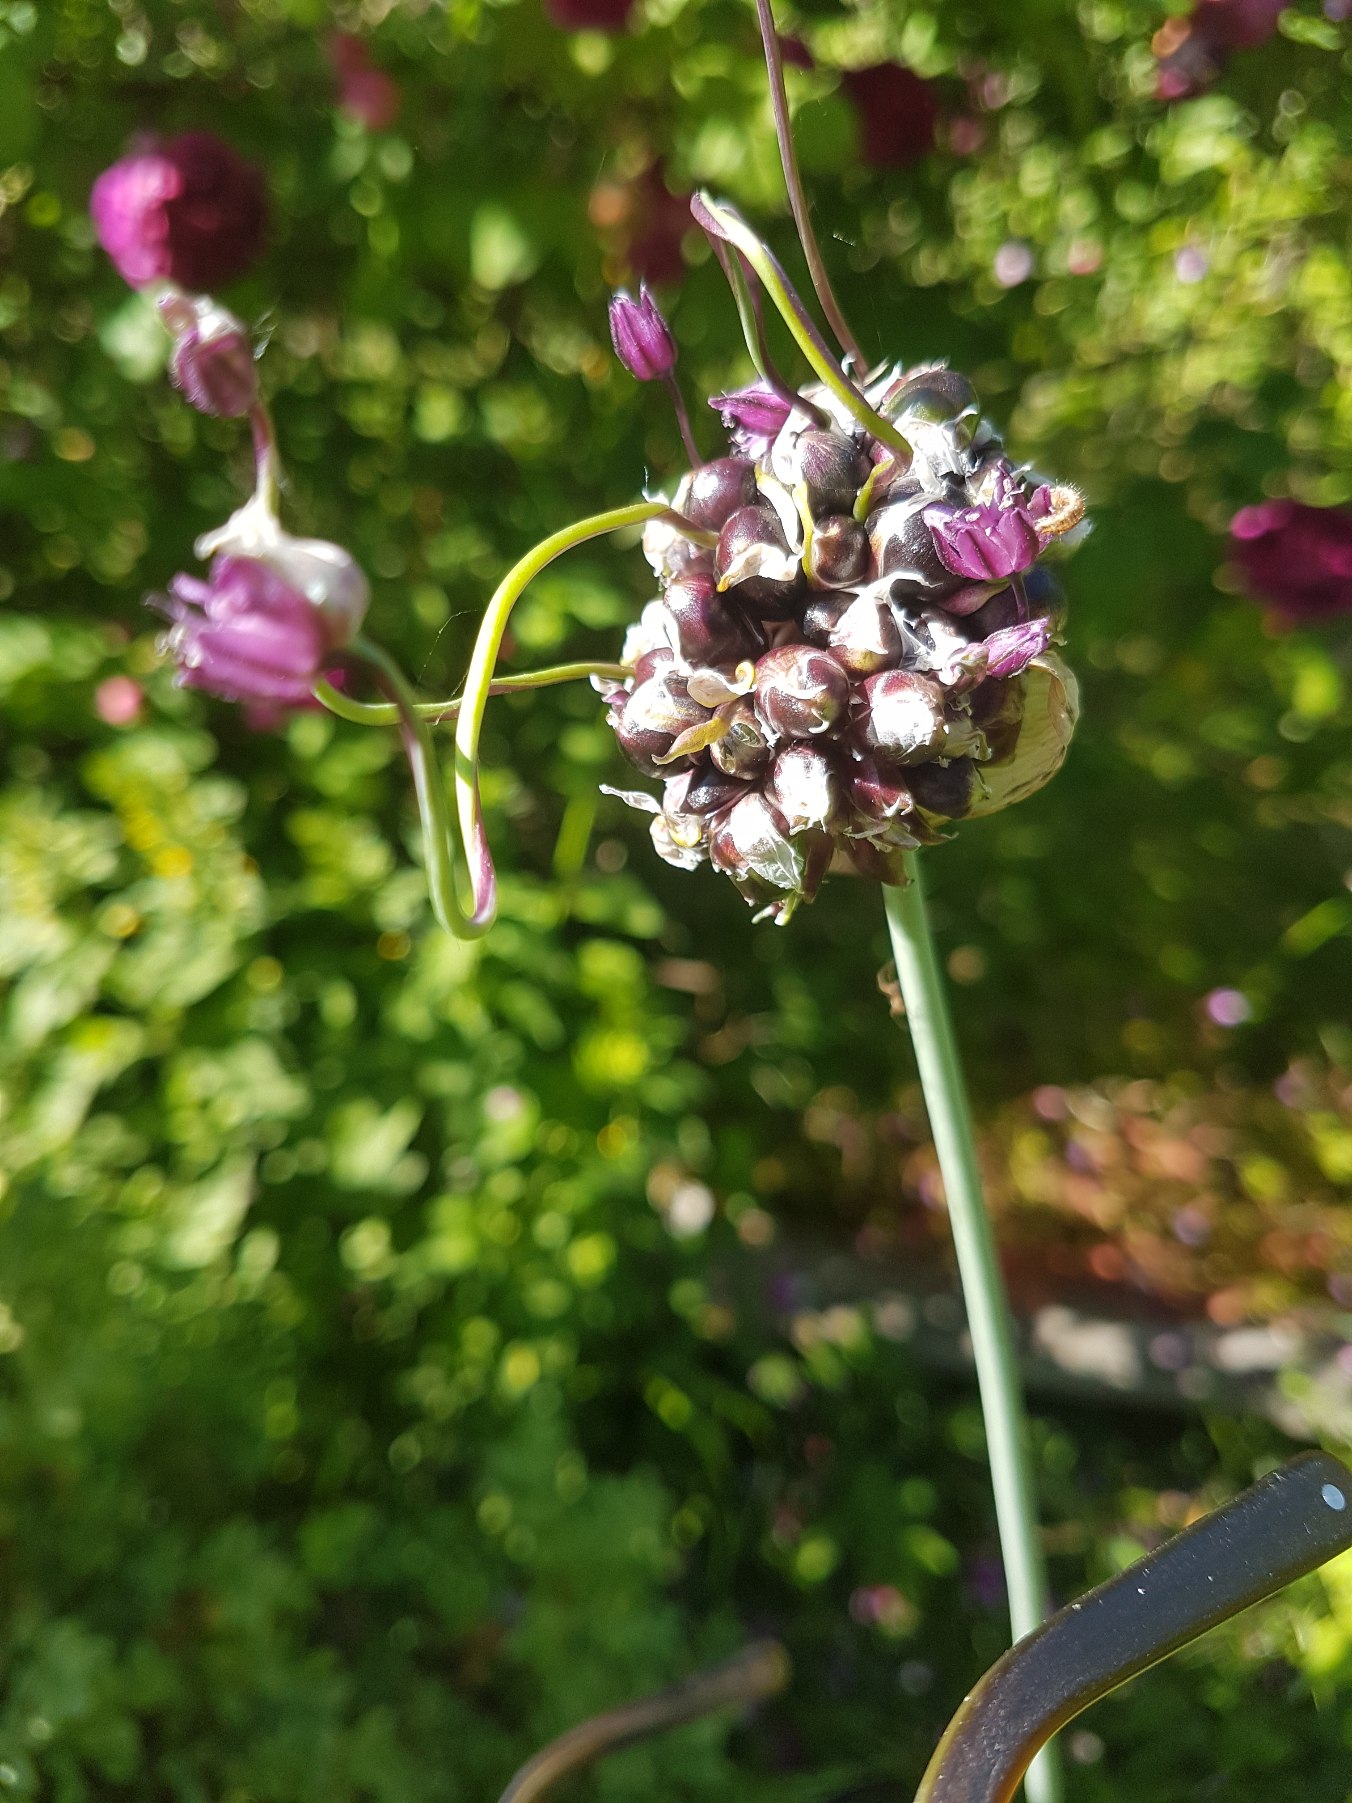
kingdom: Plantae
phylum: Tracheophyta
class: Liliopsida
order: Asparagales
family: Amaryllidaceae
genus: Allium
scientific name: Allium scorodoprasum
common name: Skov-løg
